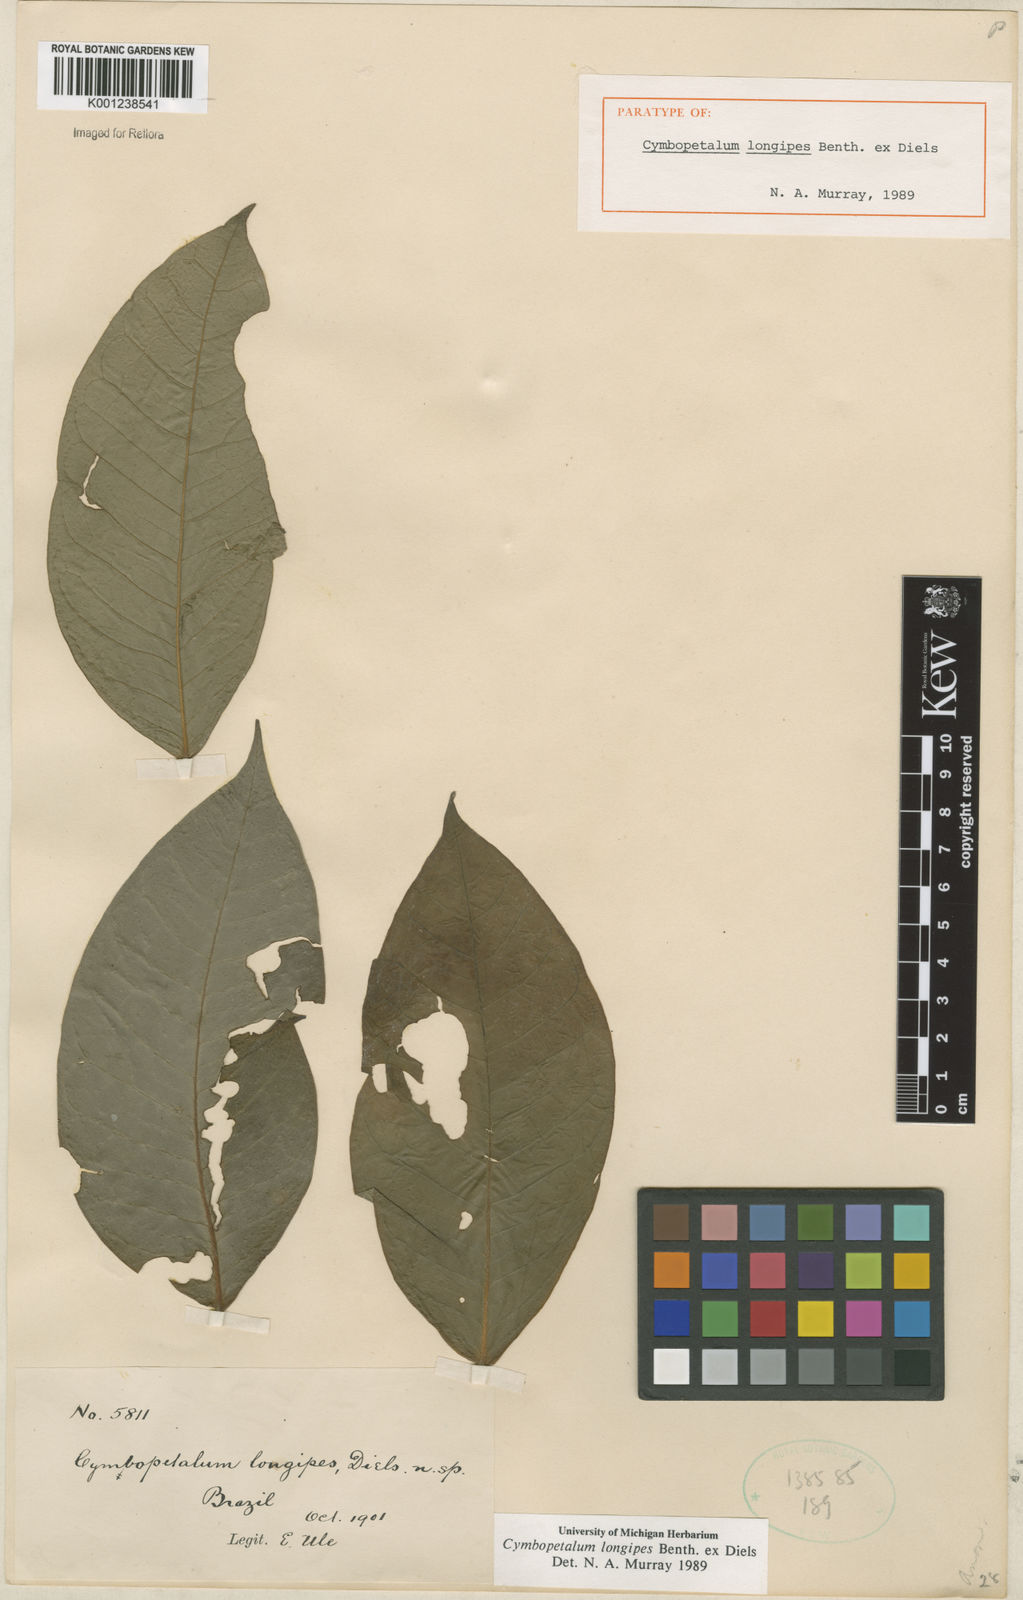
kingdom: Plantae
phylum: Tracheophyta
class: Magnoliopsida
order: Magnoliales
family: Annonaceae
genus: Cymbopetalum
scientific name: Cymbopetalum longipes
